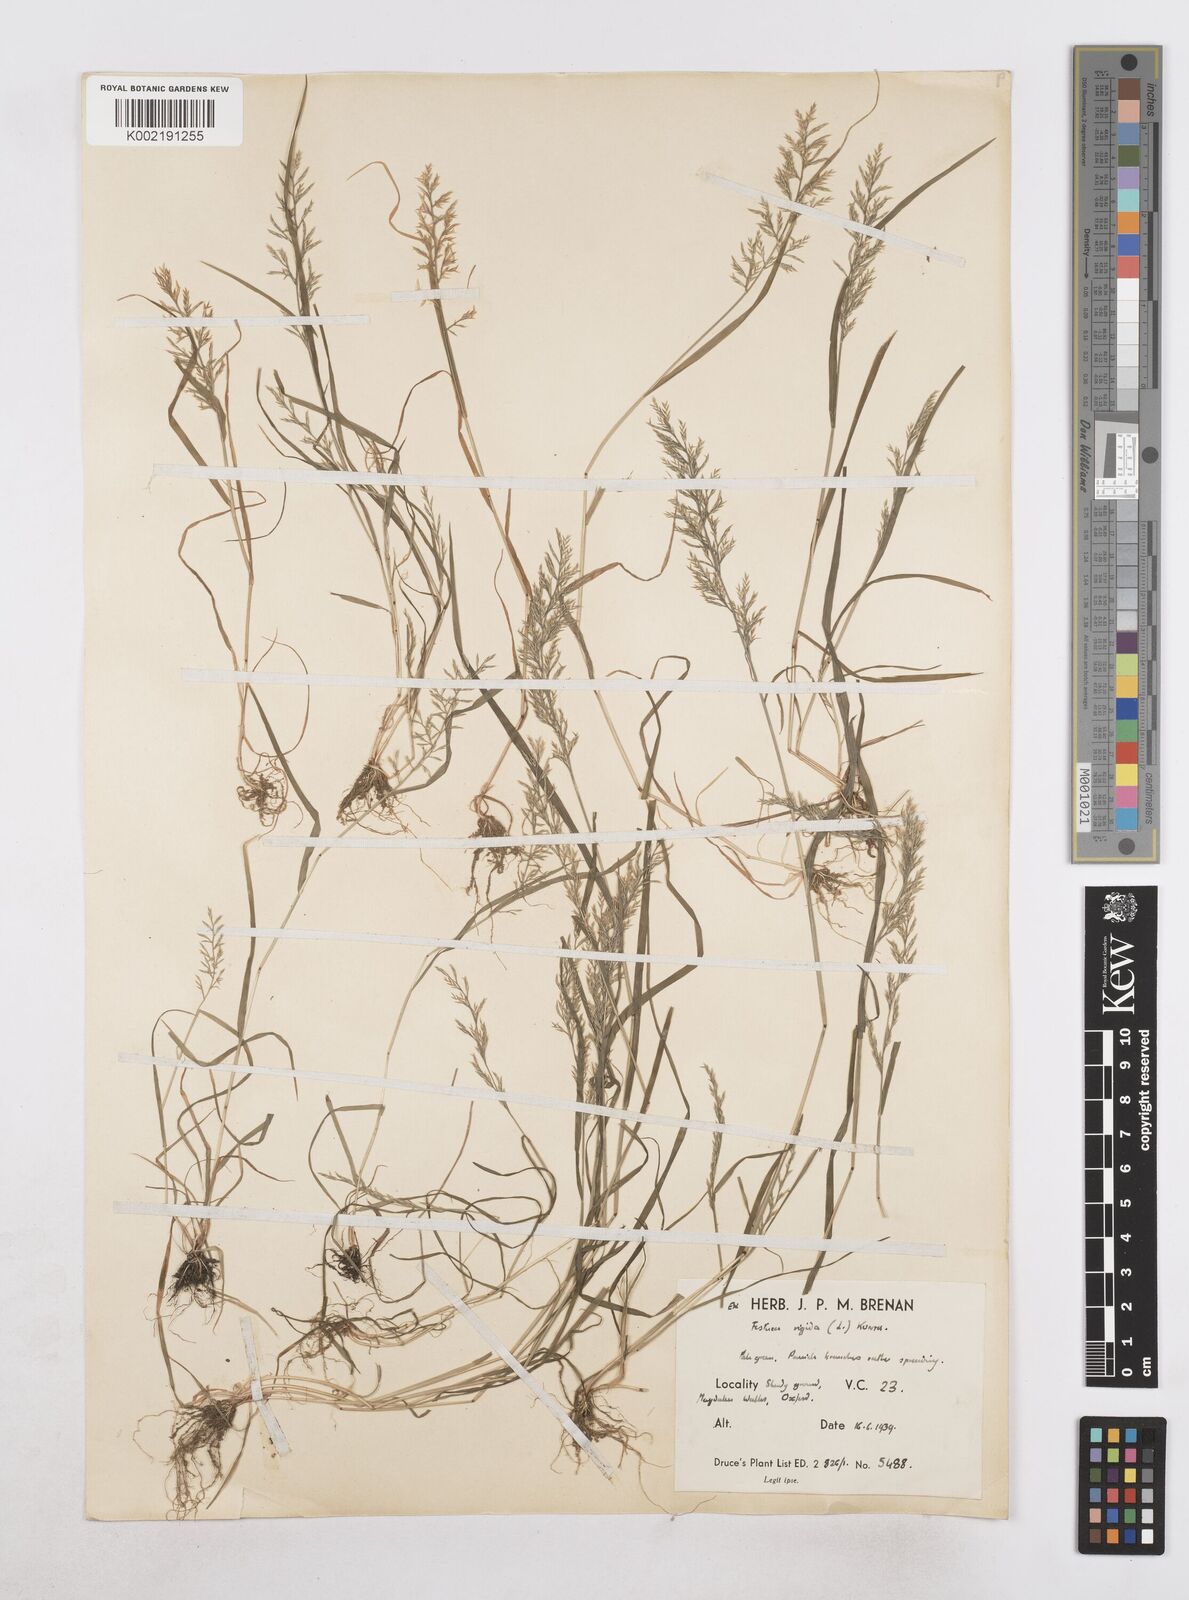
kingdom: Plantae
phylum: Tracheophyta
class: Liliopsida
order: Poales
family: Poaceae
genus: Catapodium
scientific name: Catapodium rigidum
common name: Fern-grass
